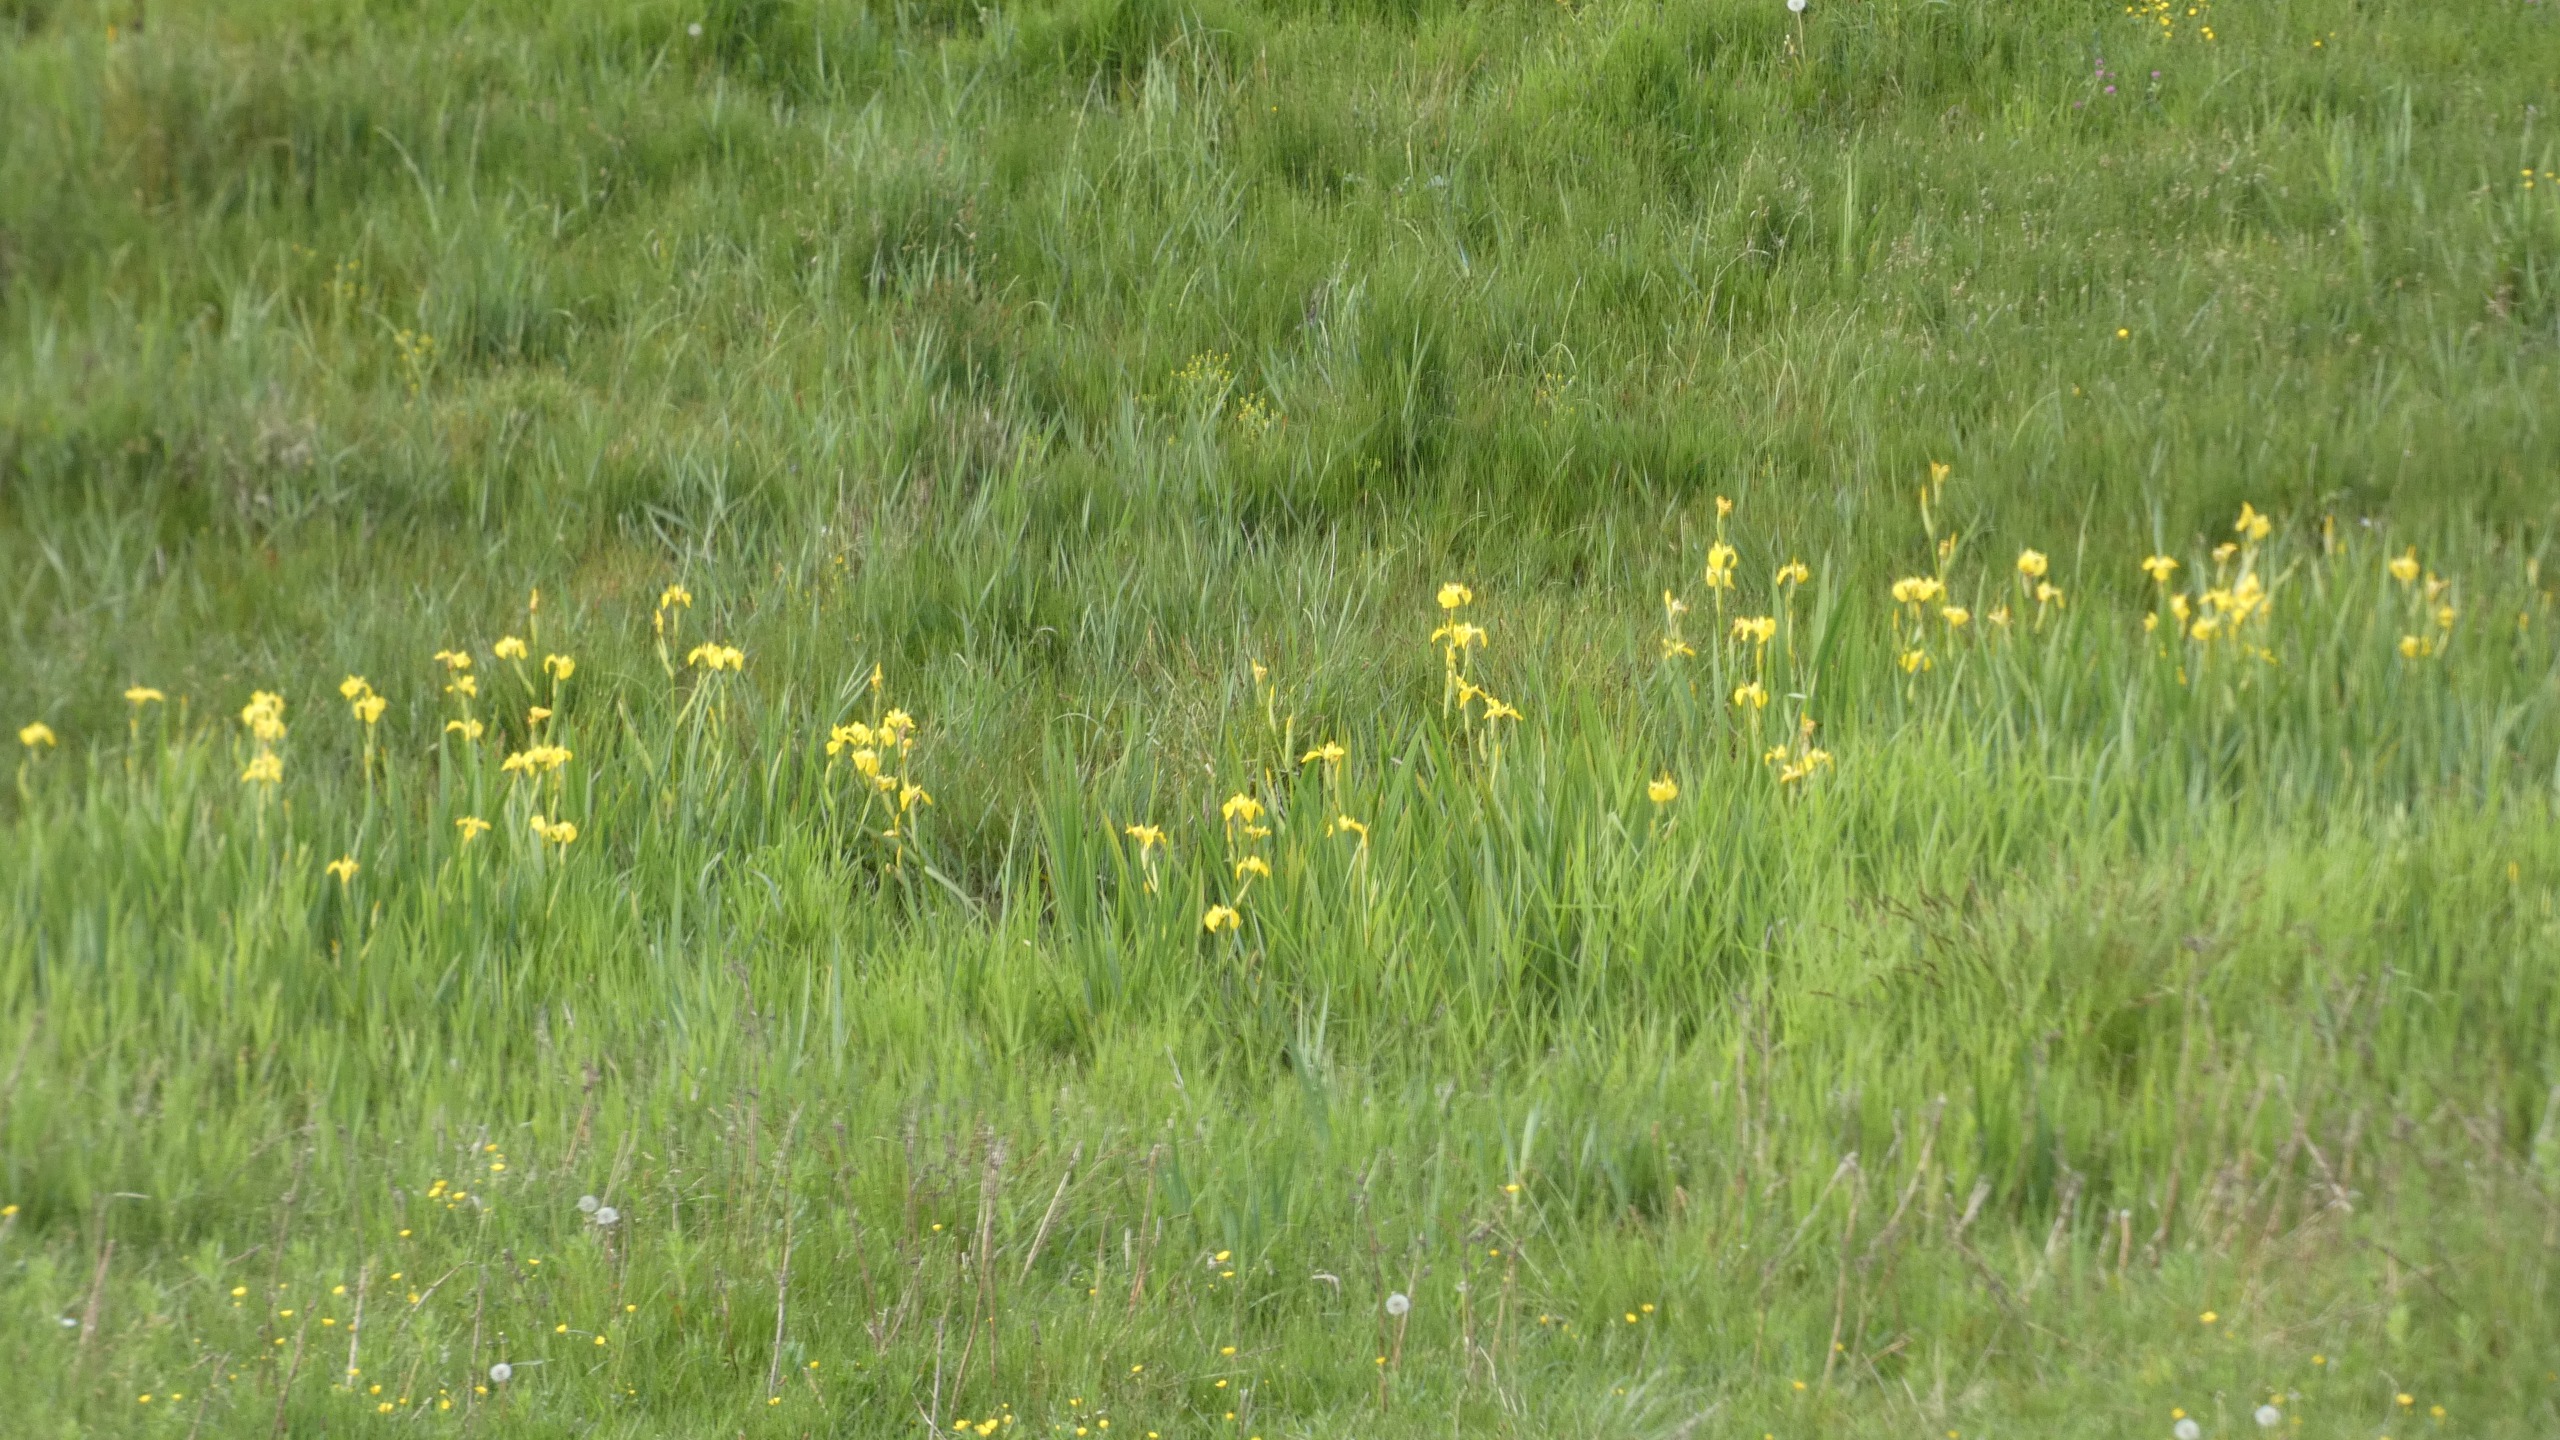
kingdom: Plantae
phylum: Tracheophyta
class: Liliopsida
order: Asparagales
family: Iridaceae
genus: Iris
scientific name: Iris pseudacorus
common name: Gul iris
